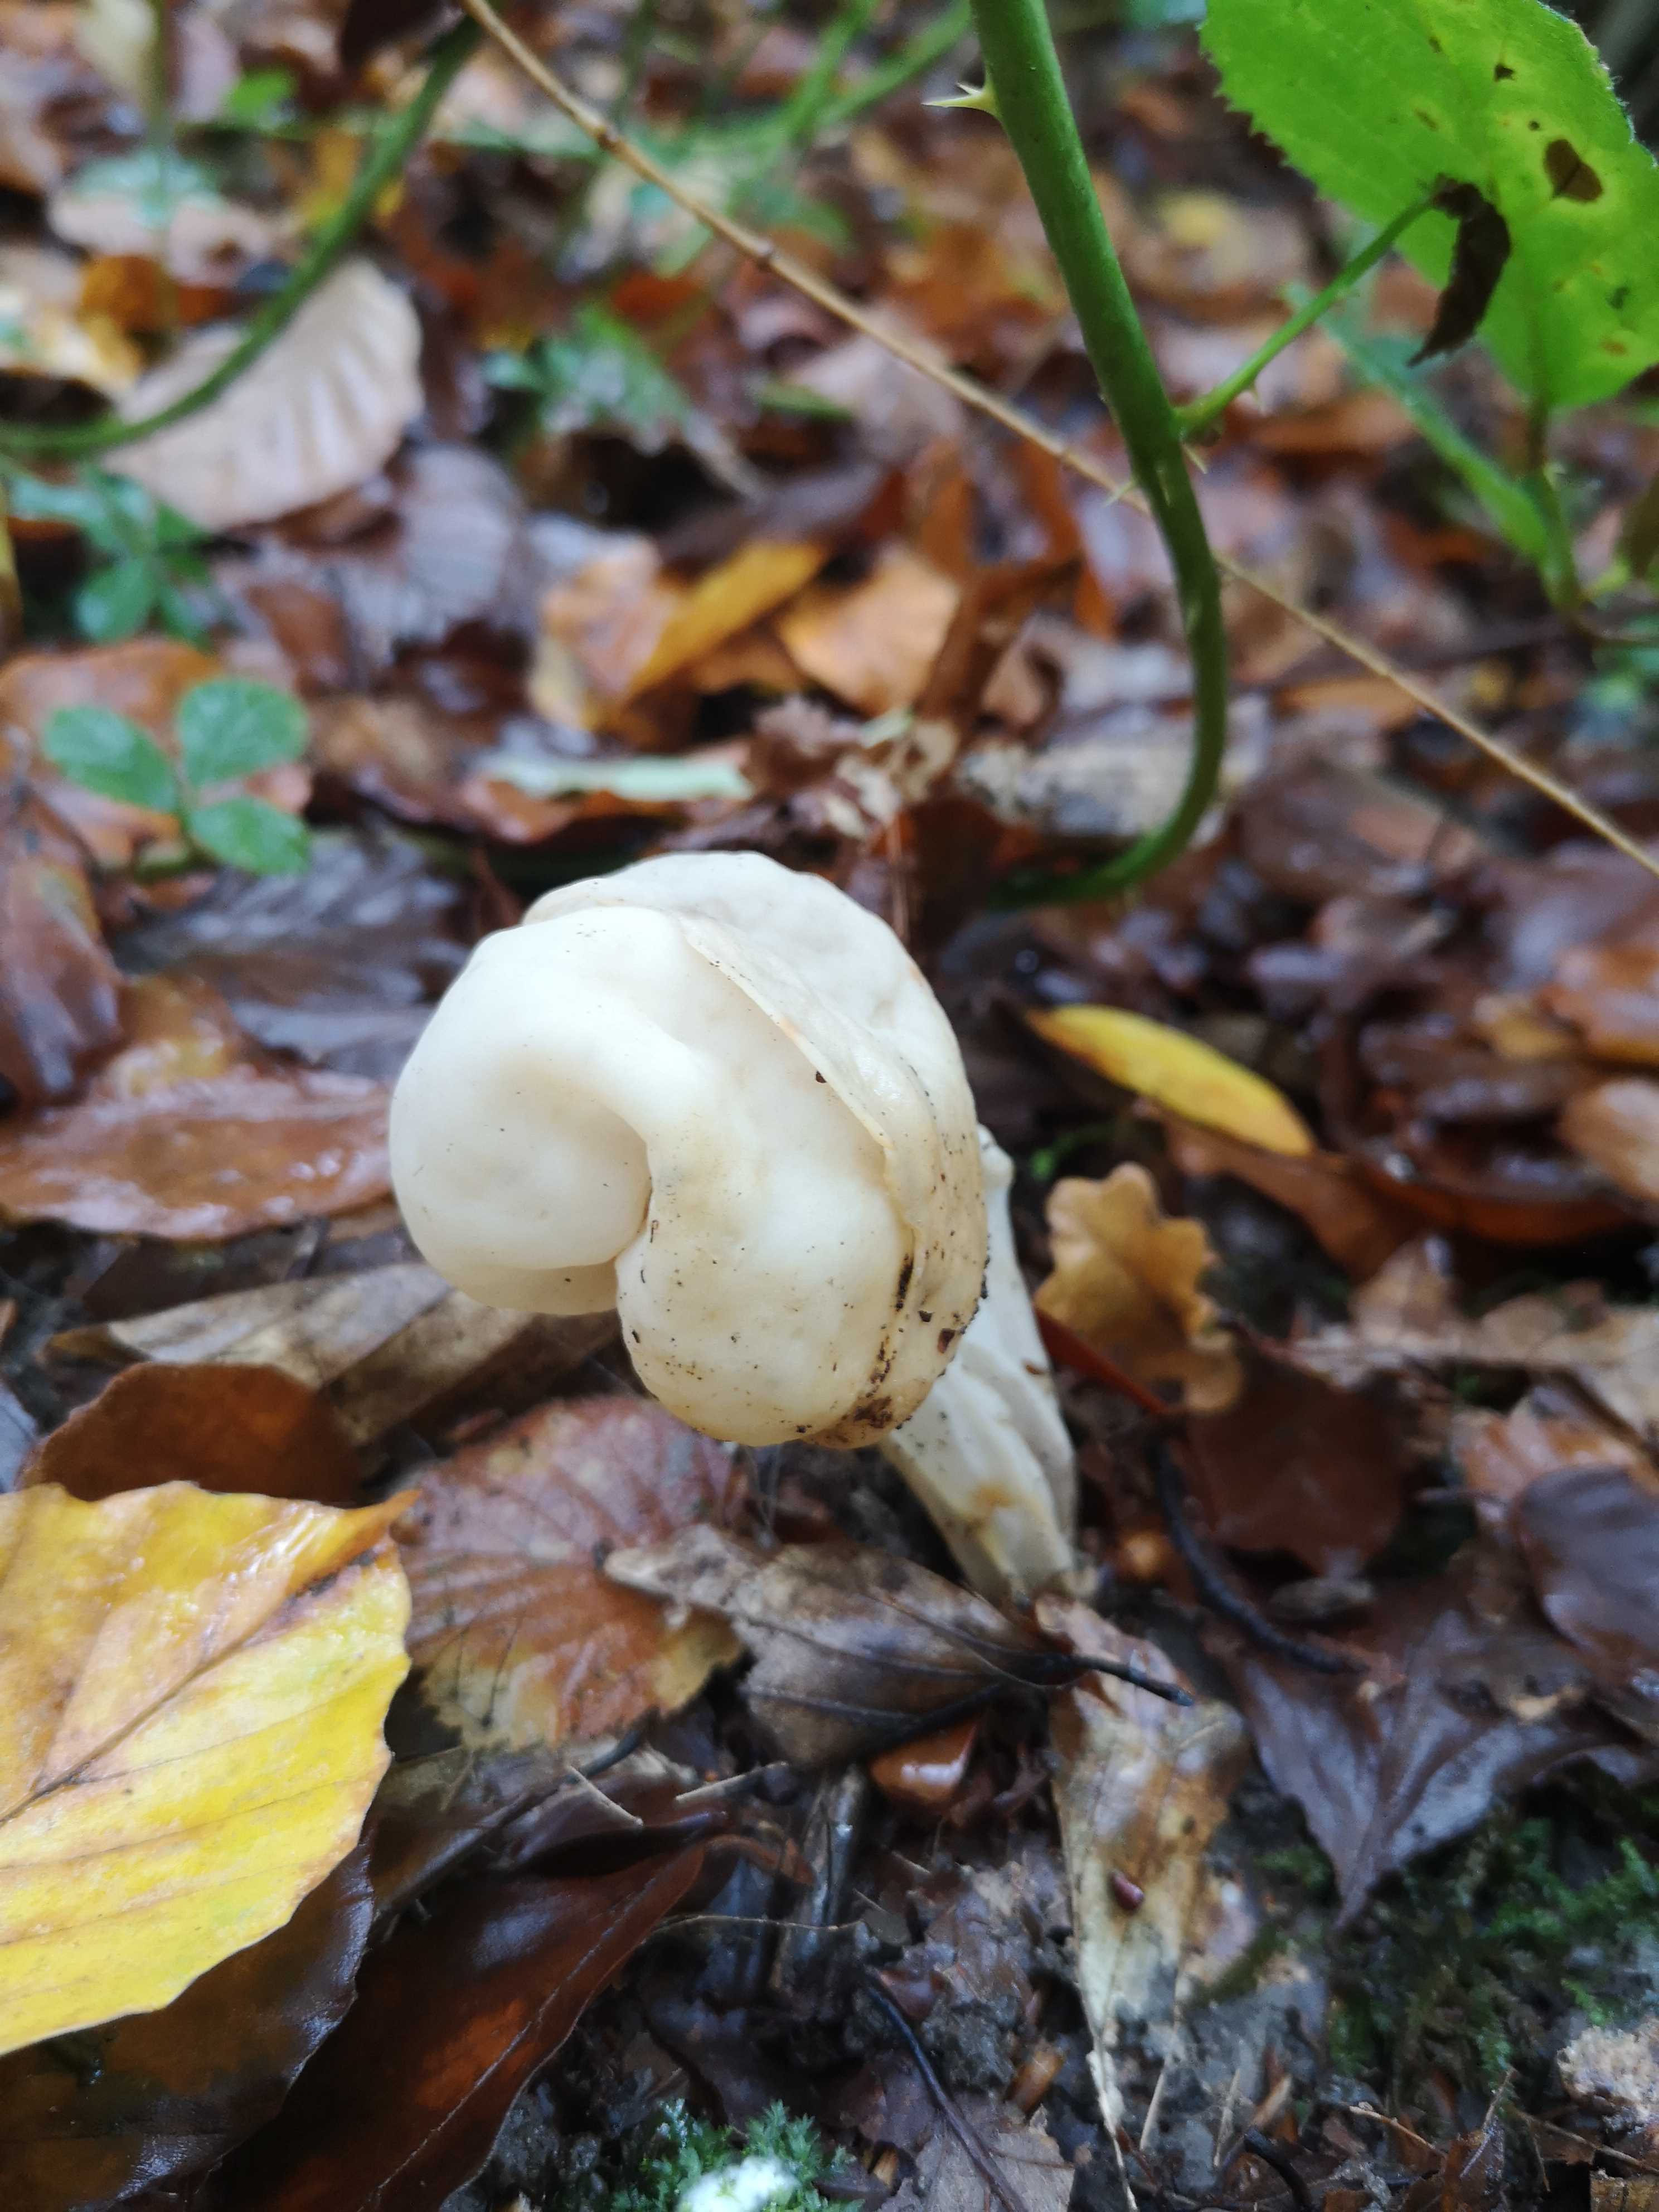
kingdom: Fungi
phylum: Ascomycota
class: Pezizomycetes
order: Pezizales
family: Helvellaceae
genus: Helvella
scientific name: Helvella crispa
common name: kruset foldhat
